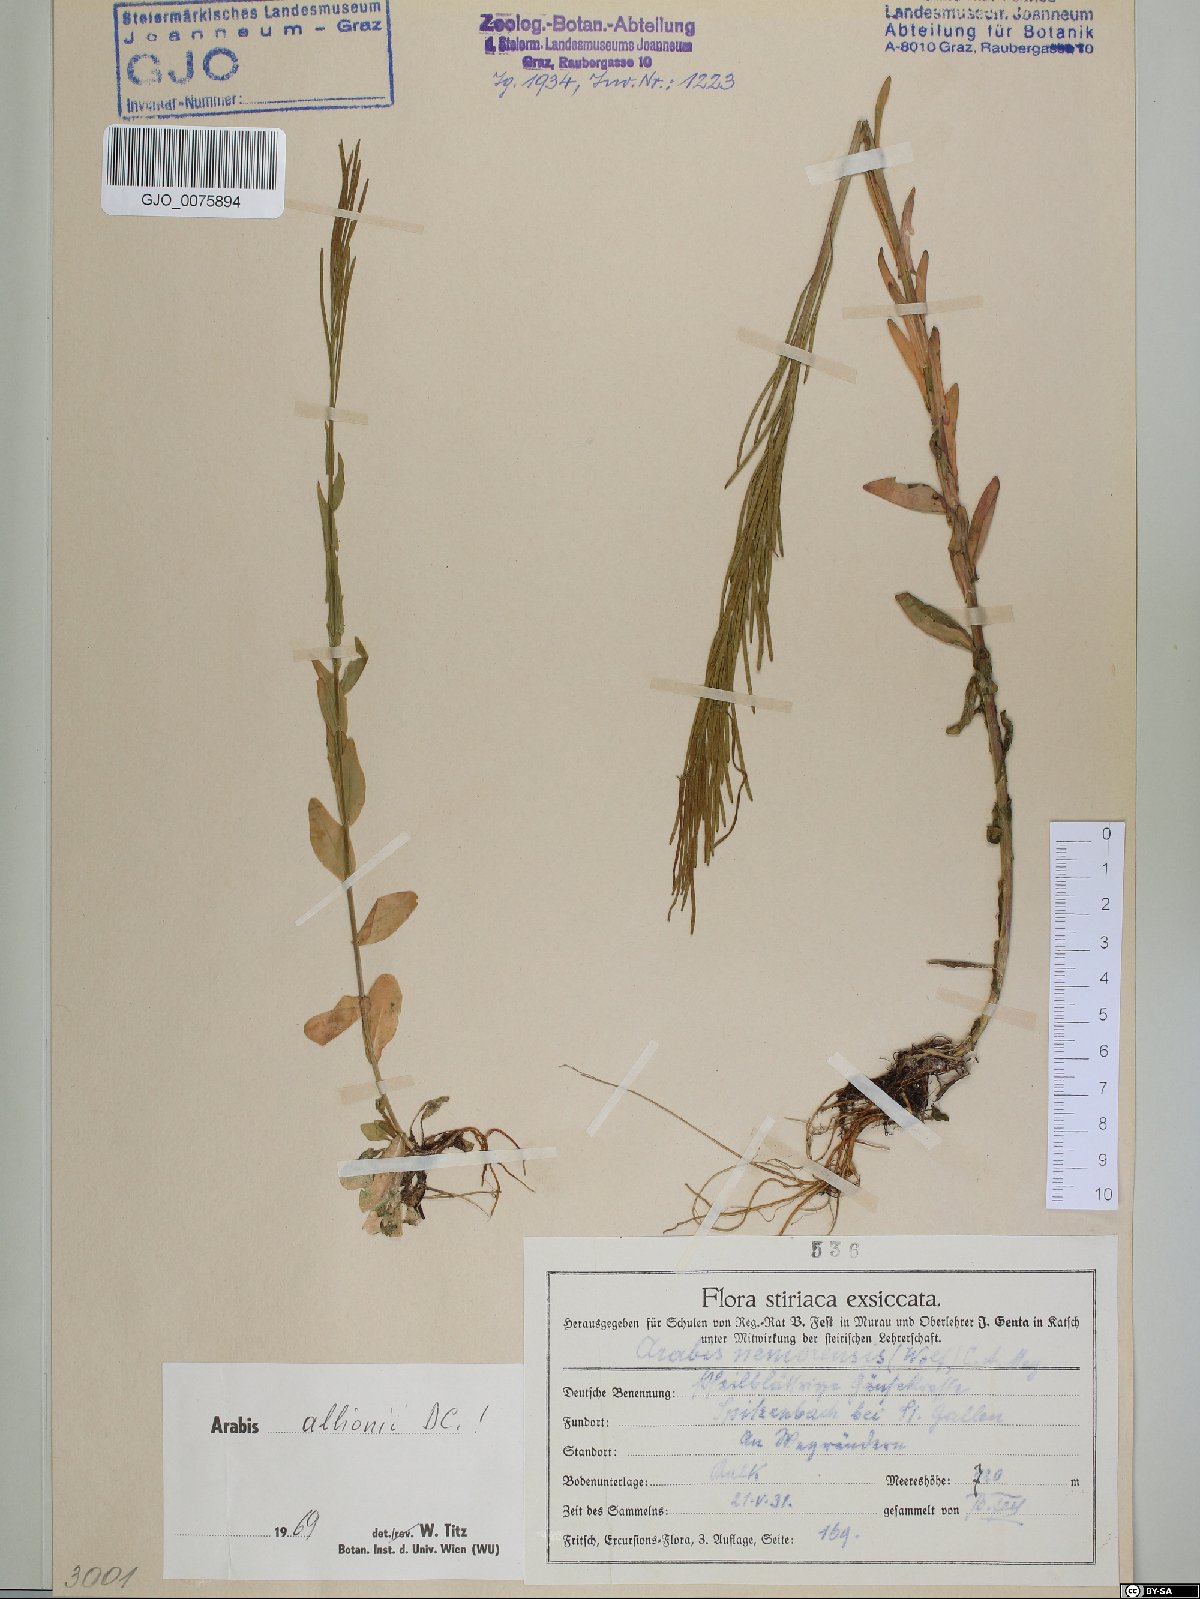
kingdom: Plantae
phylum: Tracheophyta
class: Magnoliopsida
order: Brassicales
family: Brassicaceae
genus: Arabis
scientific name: Arabis allionii
